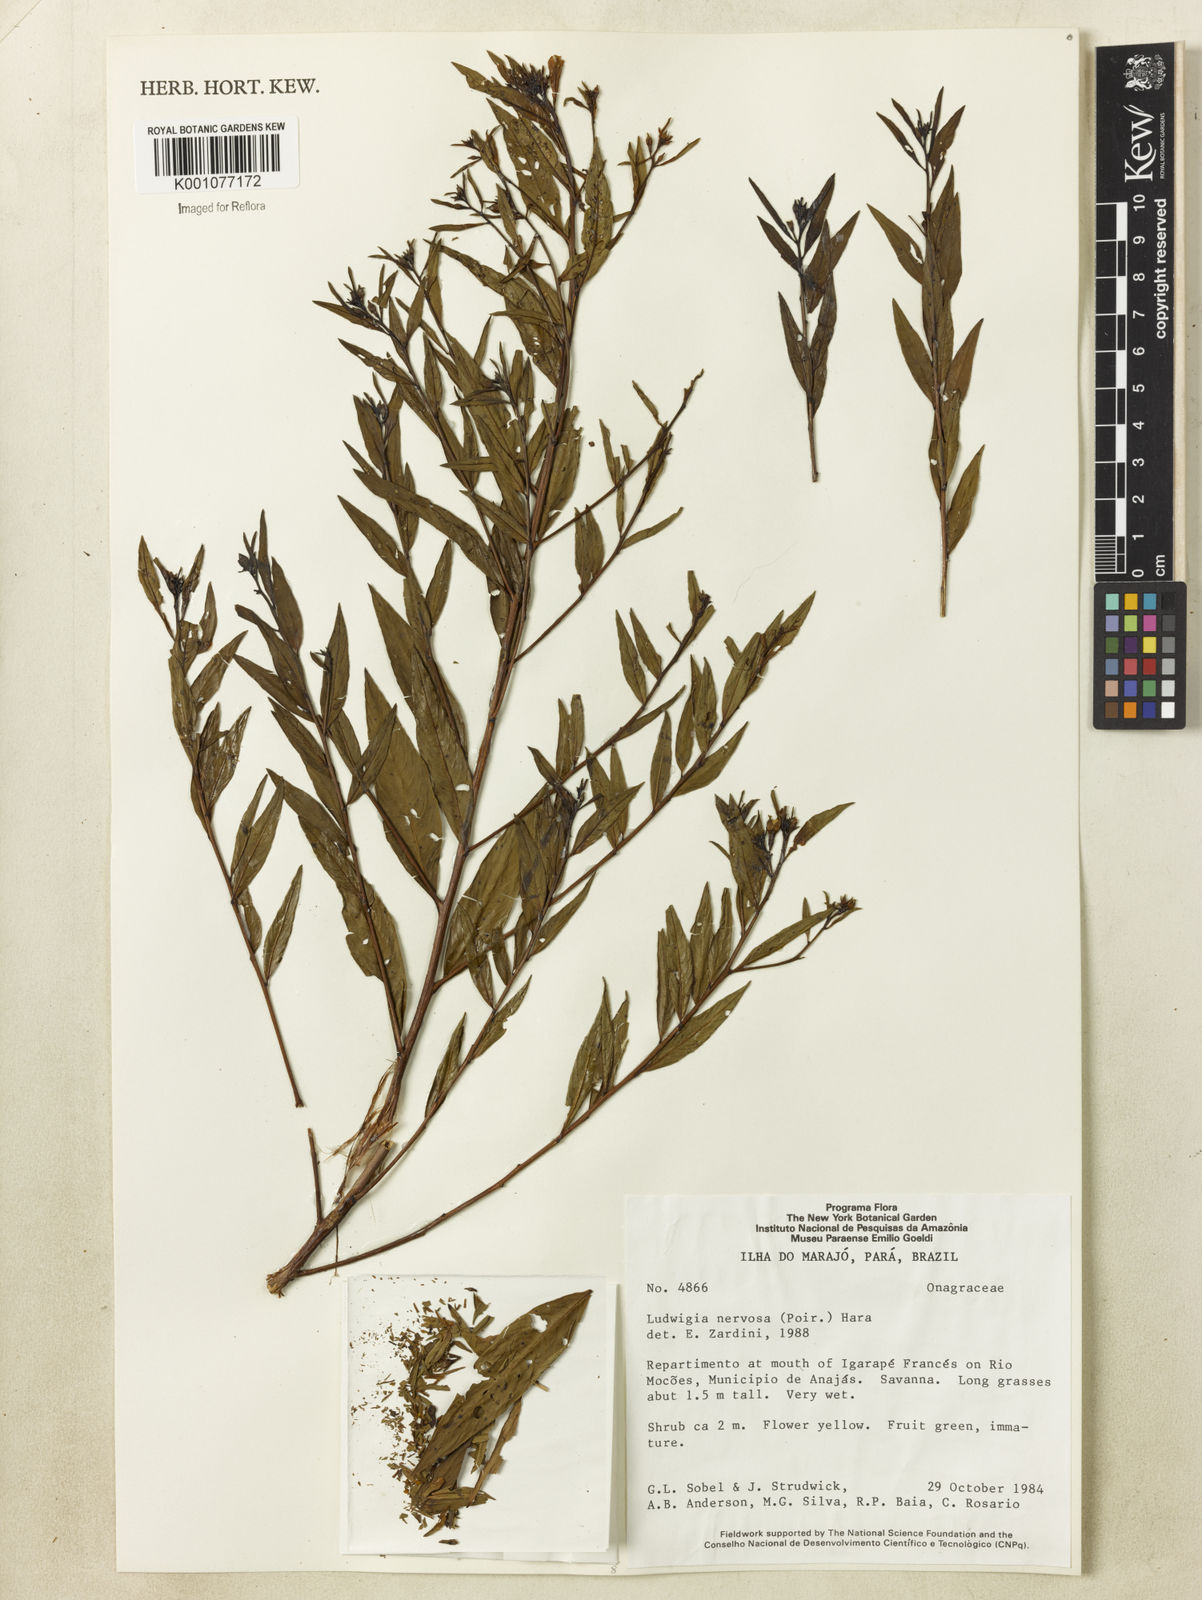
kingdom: Plantae
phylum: Tracheophyta
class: Magnoliopsida
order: Myrtales
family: Onagraceae
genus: Ludwigia
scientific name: Ludwigia nervosa
